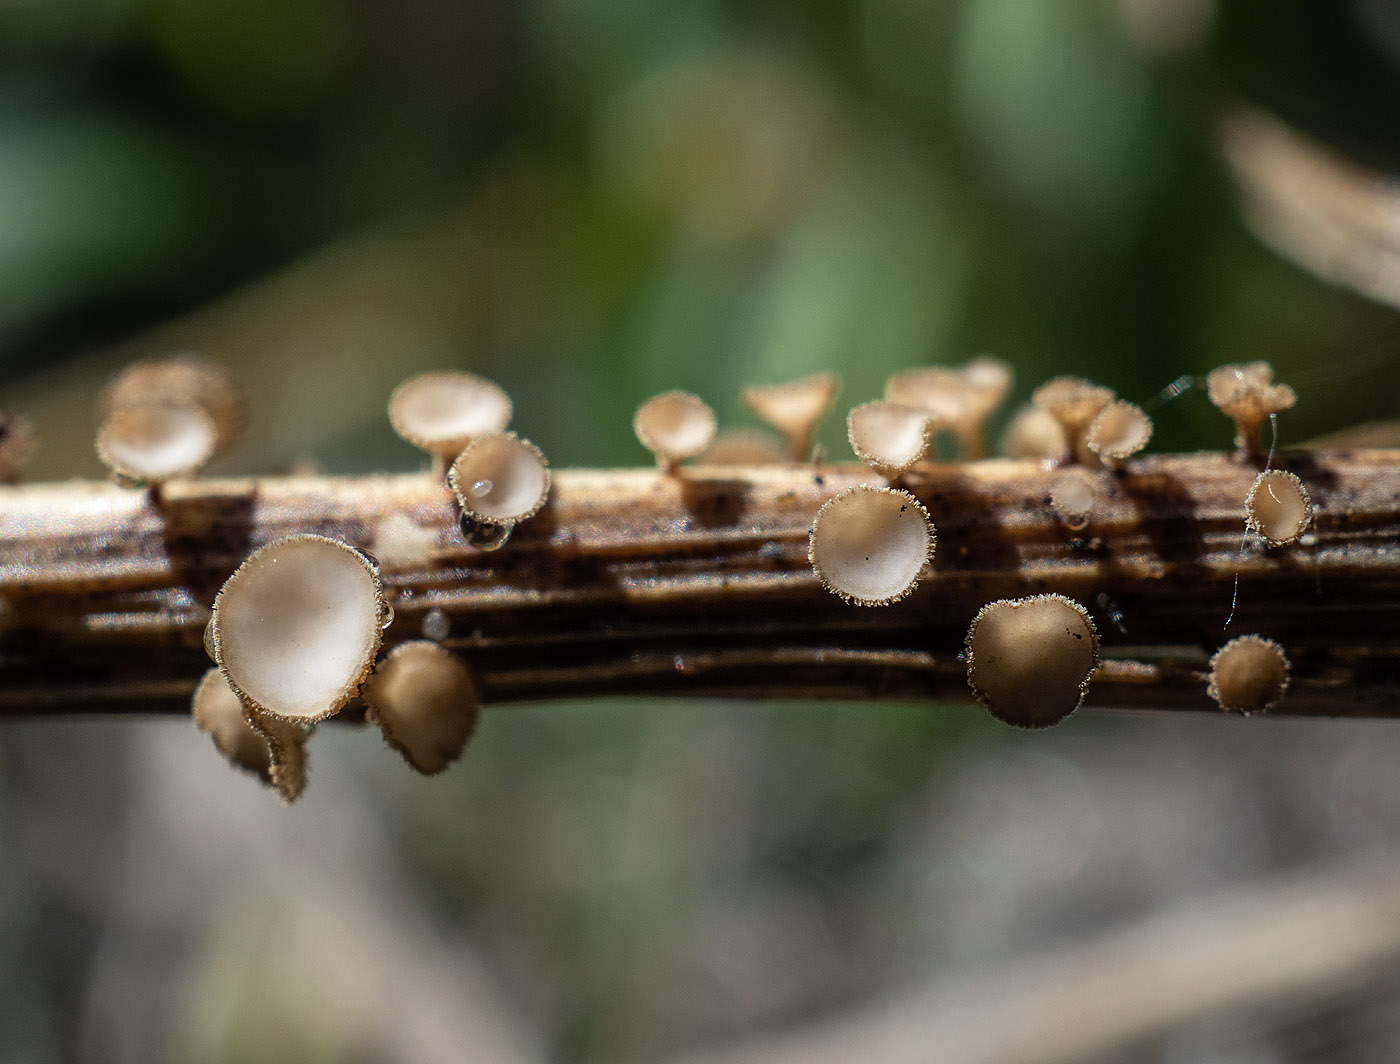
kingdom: Fungi
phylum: Ascomycota
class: Leotiomycetes
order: Helotiales
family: Lachnaceae
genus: Brunnipila
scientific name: Brunnipila palearum
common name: brunhåret frynseskive
